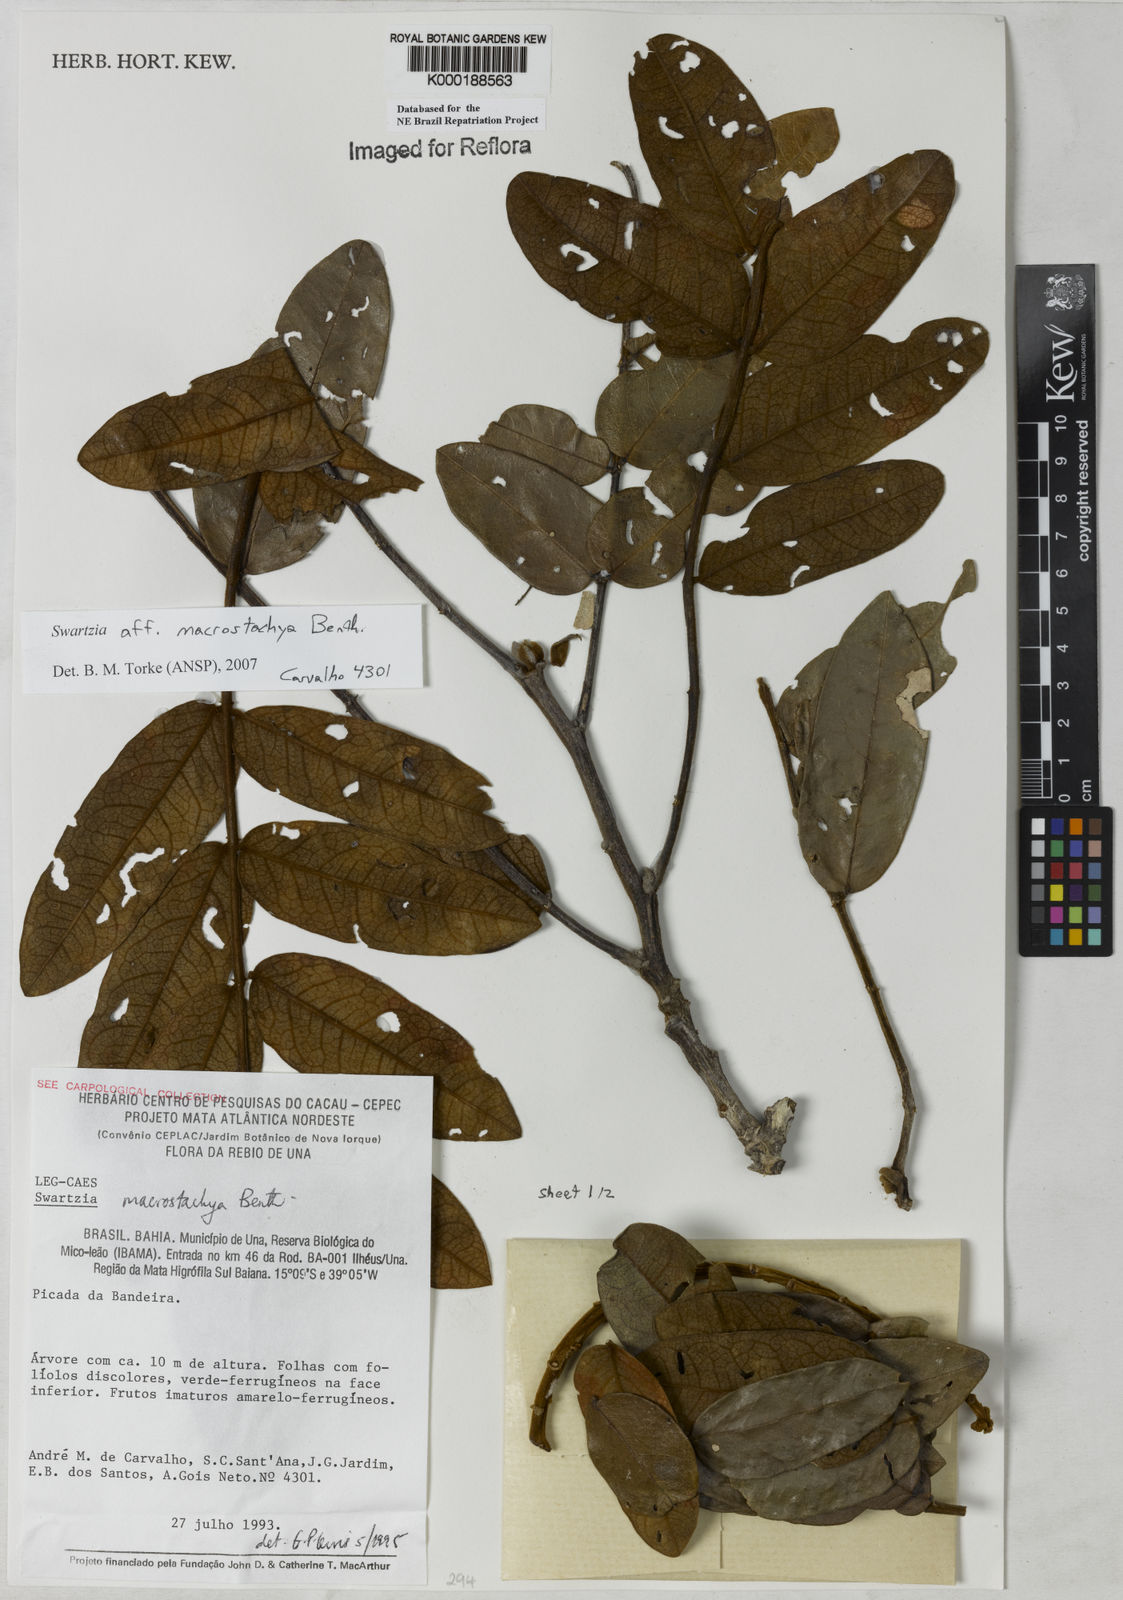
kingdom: Plantae
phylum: Tracheophyta
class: Magnoliopsida
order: Fabales
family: Fabaceae
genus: Swartzia
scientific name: Swartzia
